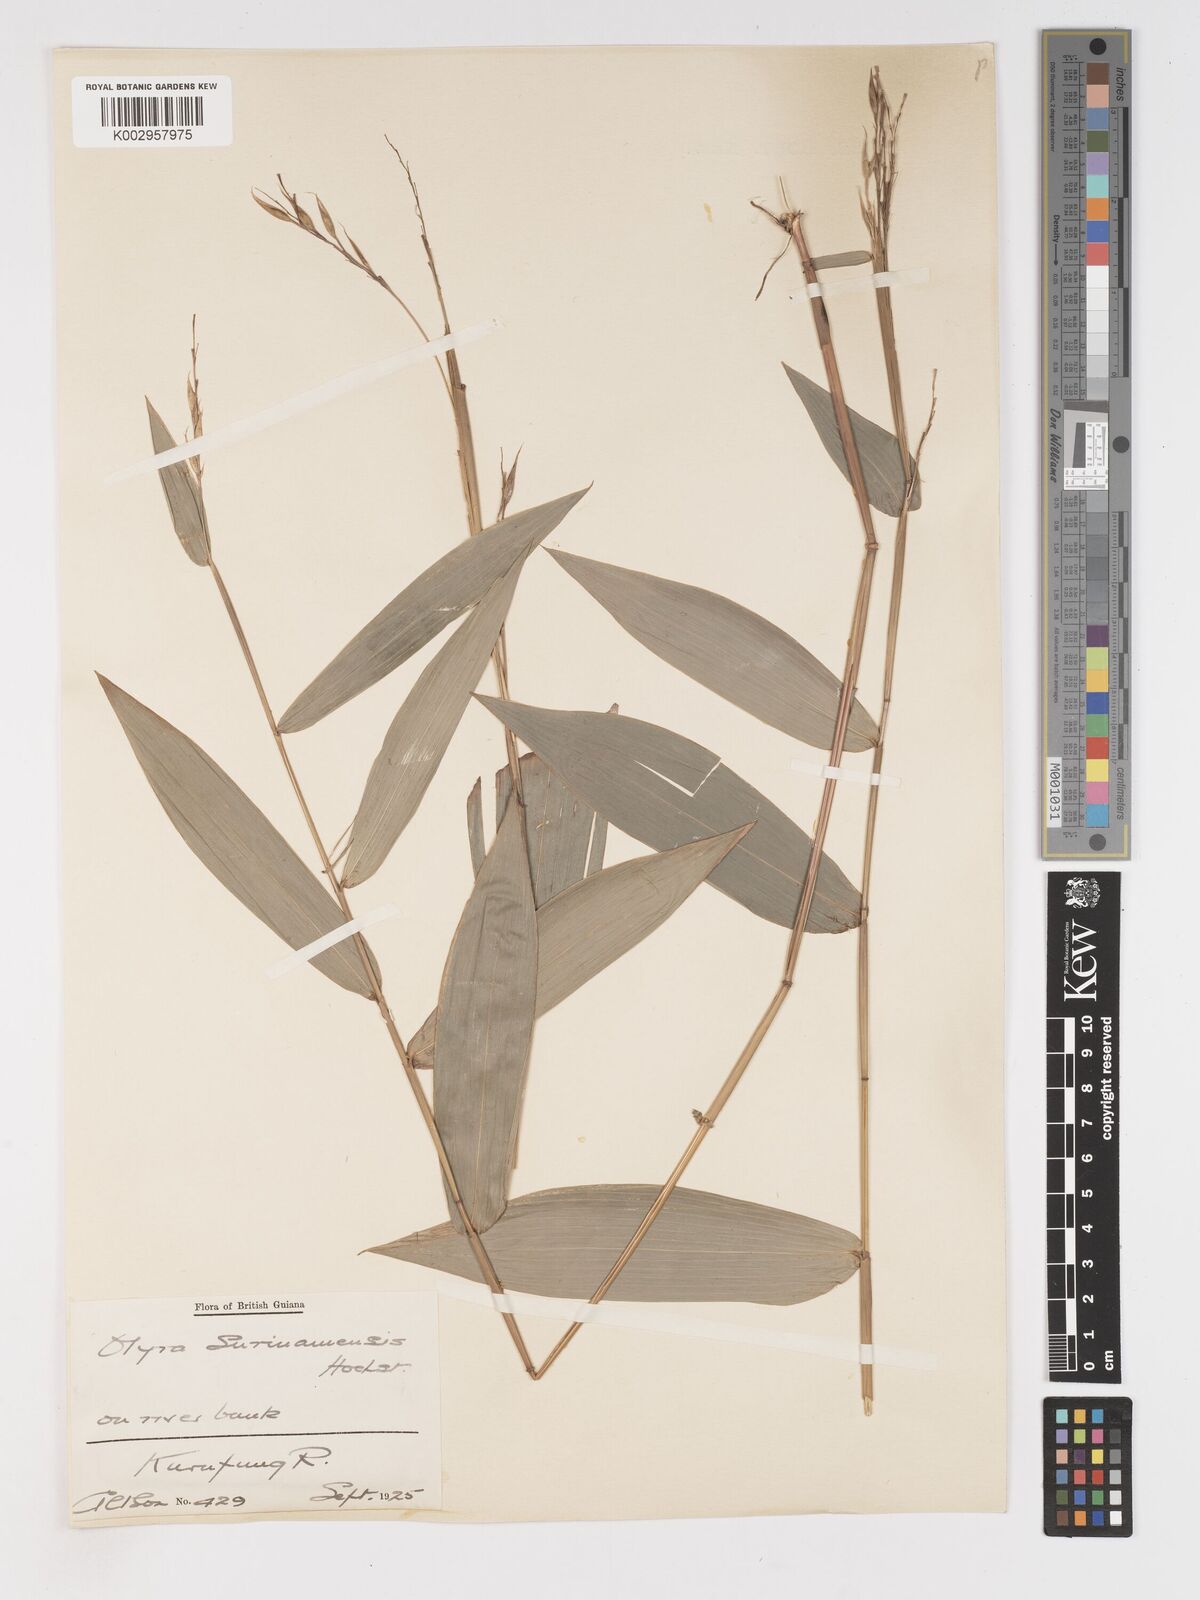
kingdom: Plantae
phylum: Tracheophyta
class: Liliopsida
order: Poales
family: Poaceae
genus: Olyra
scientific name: Olyra longifolia
